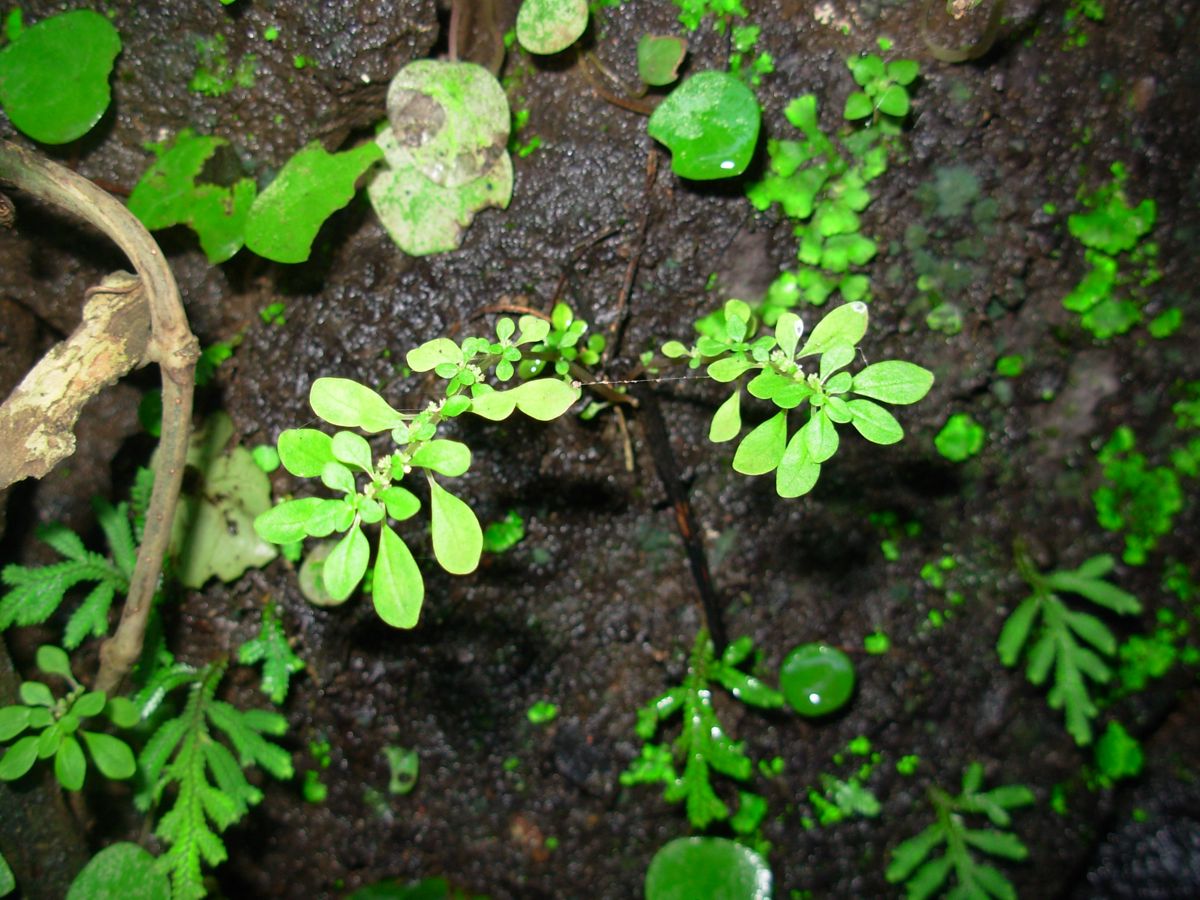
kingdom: Plantae
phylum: Tracheophyta
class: Magnoliopsida
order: Rosales
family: Urticaceae
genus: Pilea
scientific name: Pilea microphylla
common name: Artillery-plant
